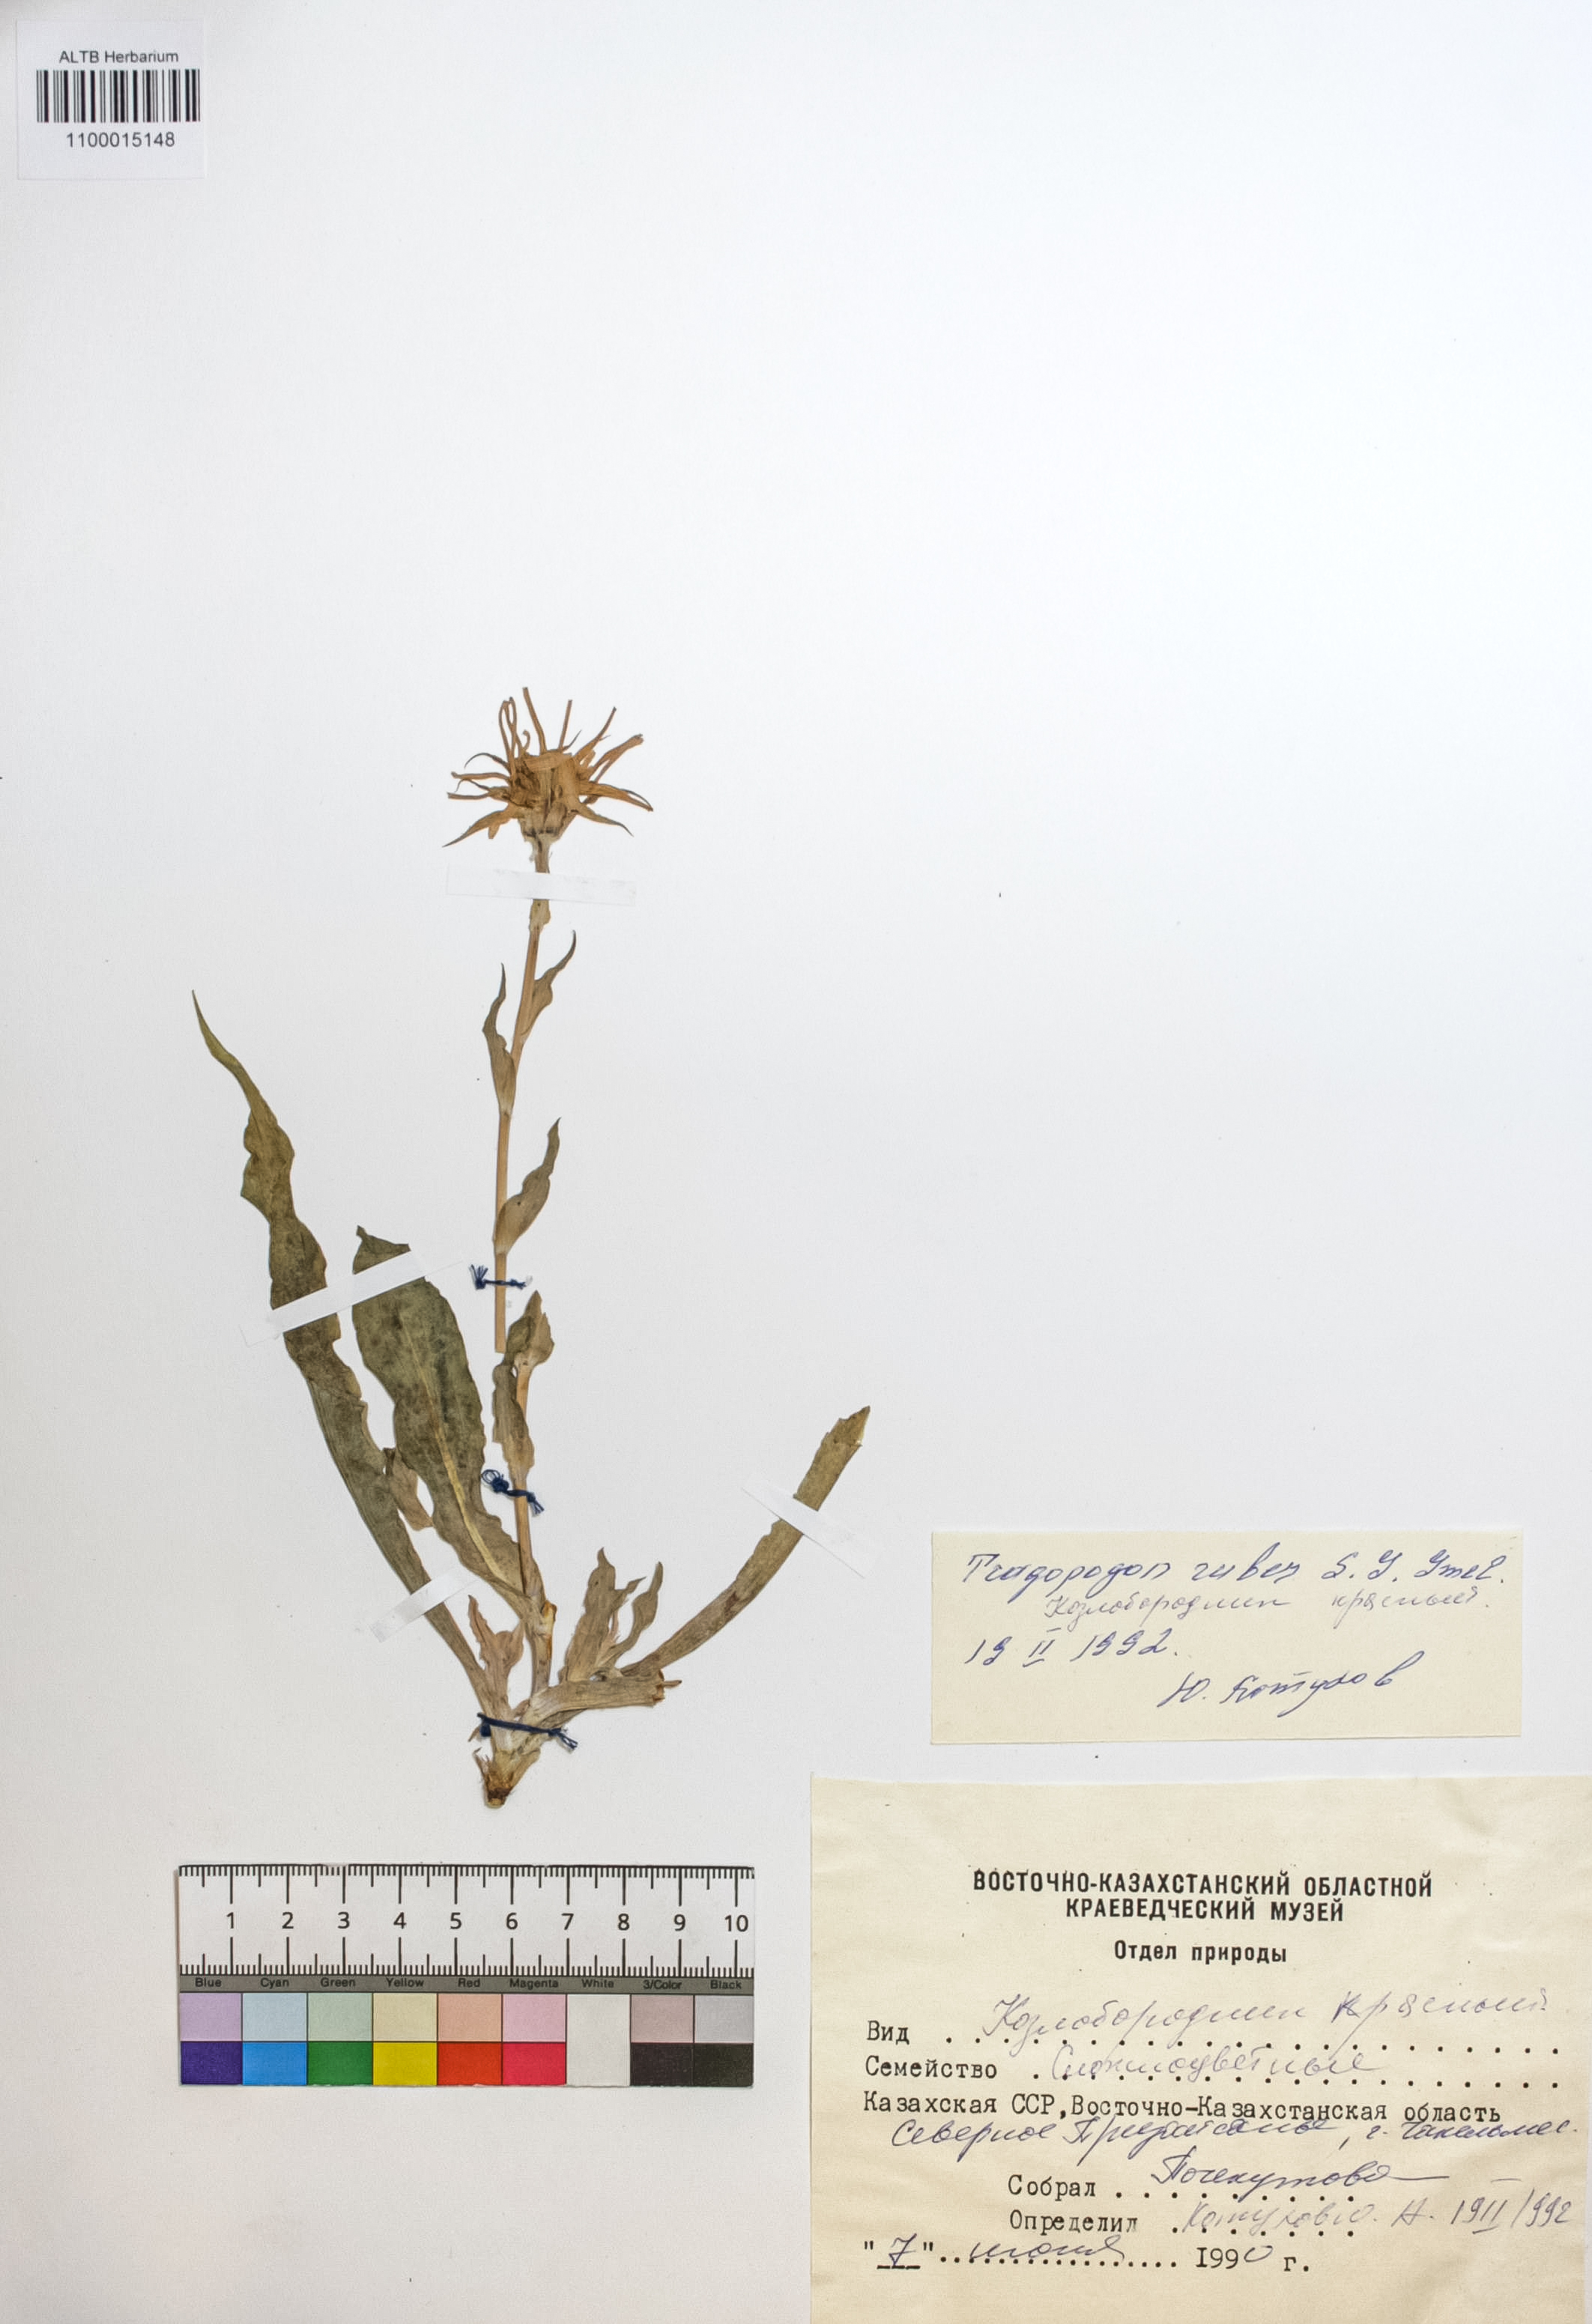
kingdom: Plantae
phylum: Tracheophyta
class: Magnoliopsida
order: Asterales
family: Asteraceae
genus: Tragopogon
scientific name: Tragopogon ruber
